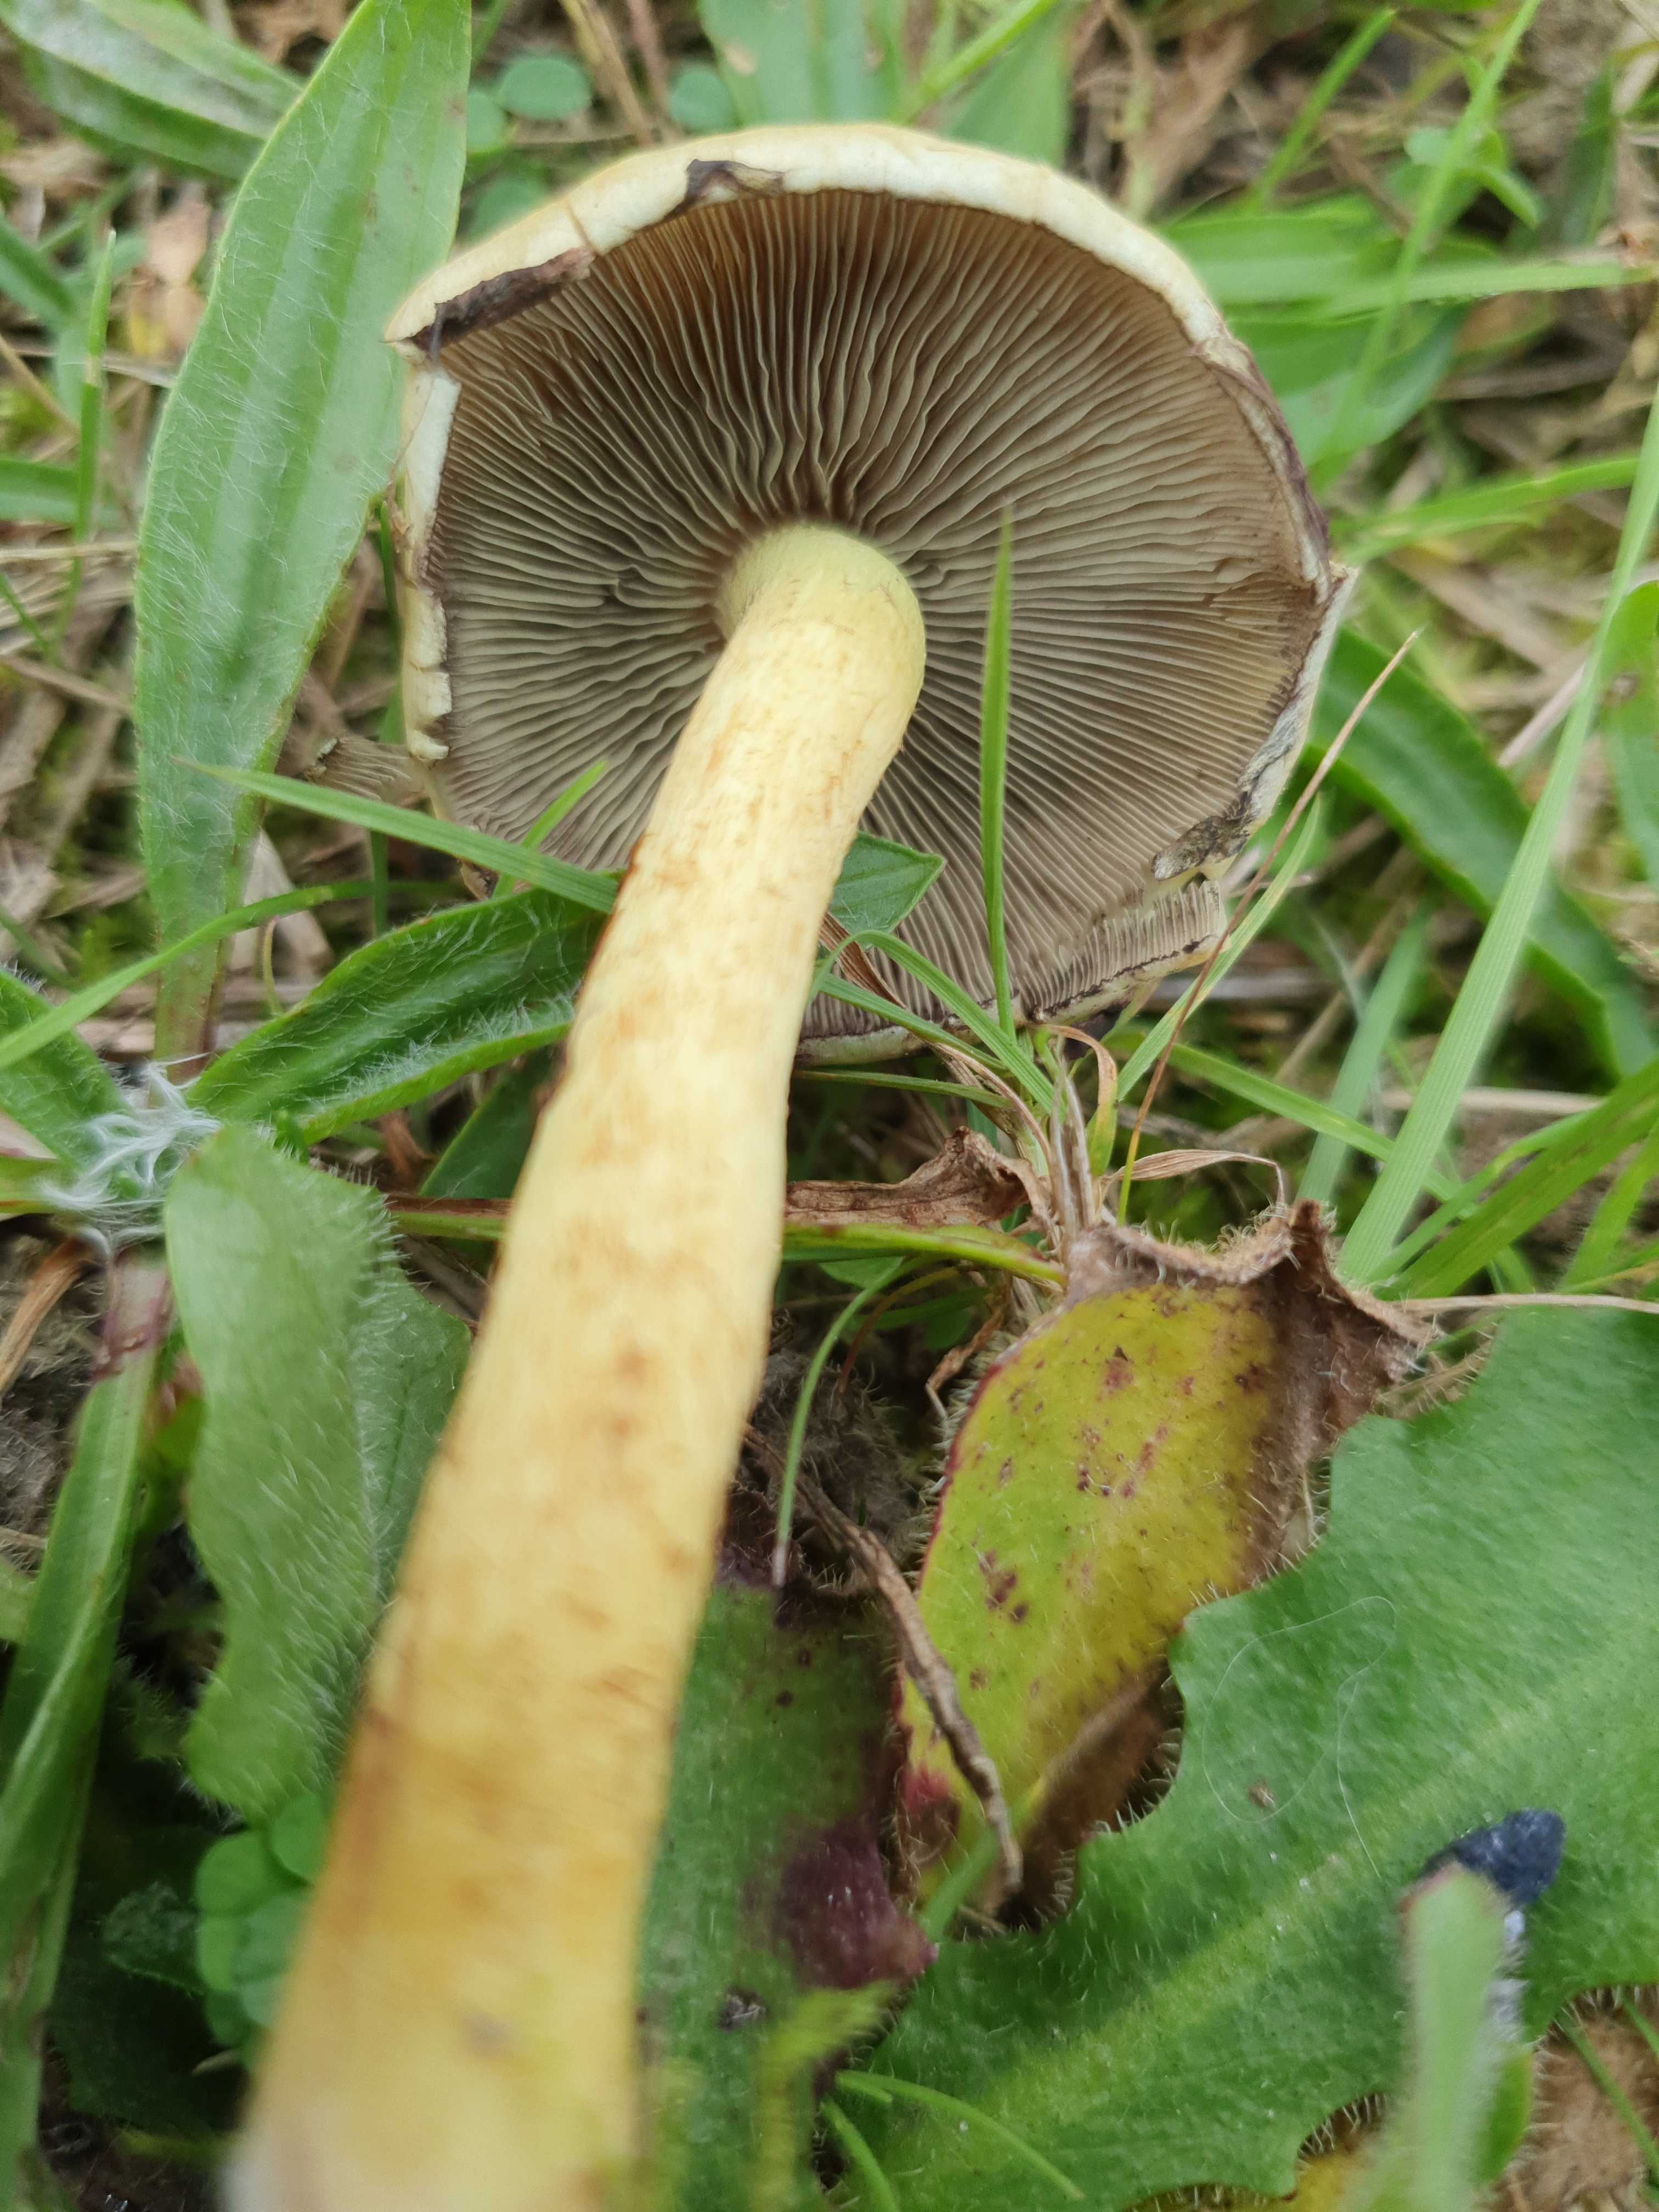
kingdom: Fungi
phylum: Basidiomycota
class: Agaricomycetes
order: Agaricales
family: Strophariaceae
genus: Hypholoma
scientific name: Hypholoma fasciculare
